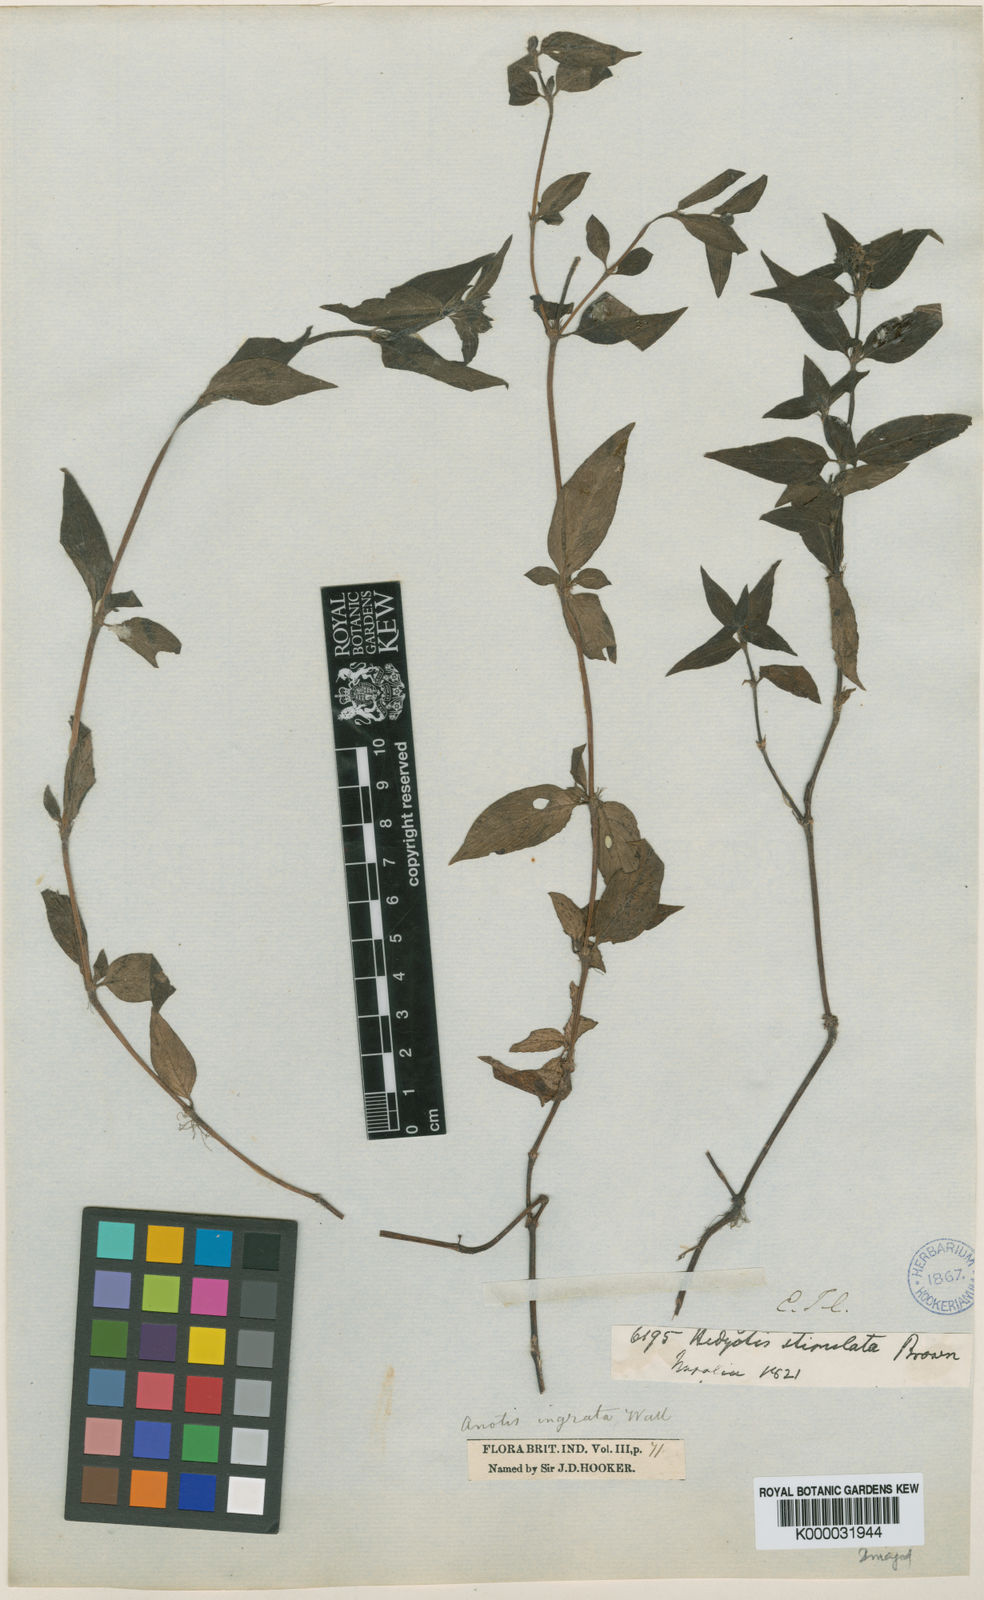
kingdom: Animalia
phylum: Chordata
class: Squamata
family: Scincidae
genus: Anotis
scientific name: Anotis
